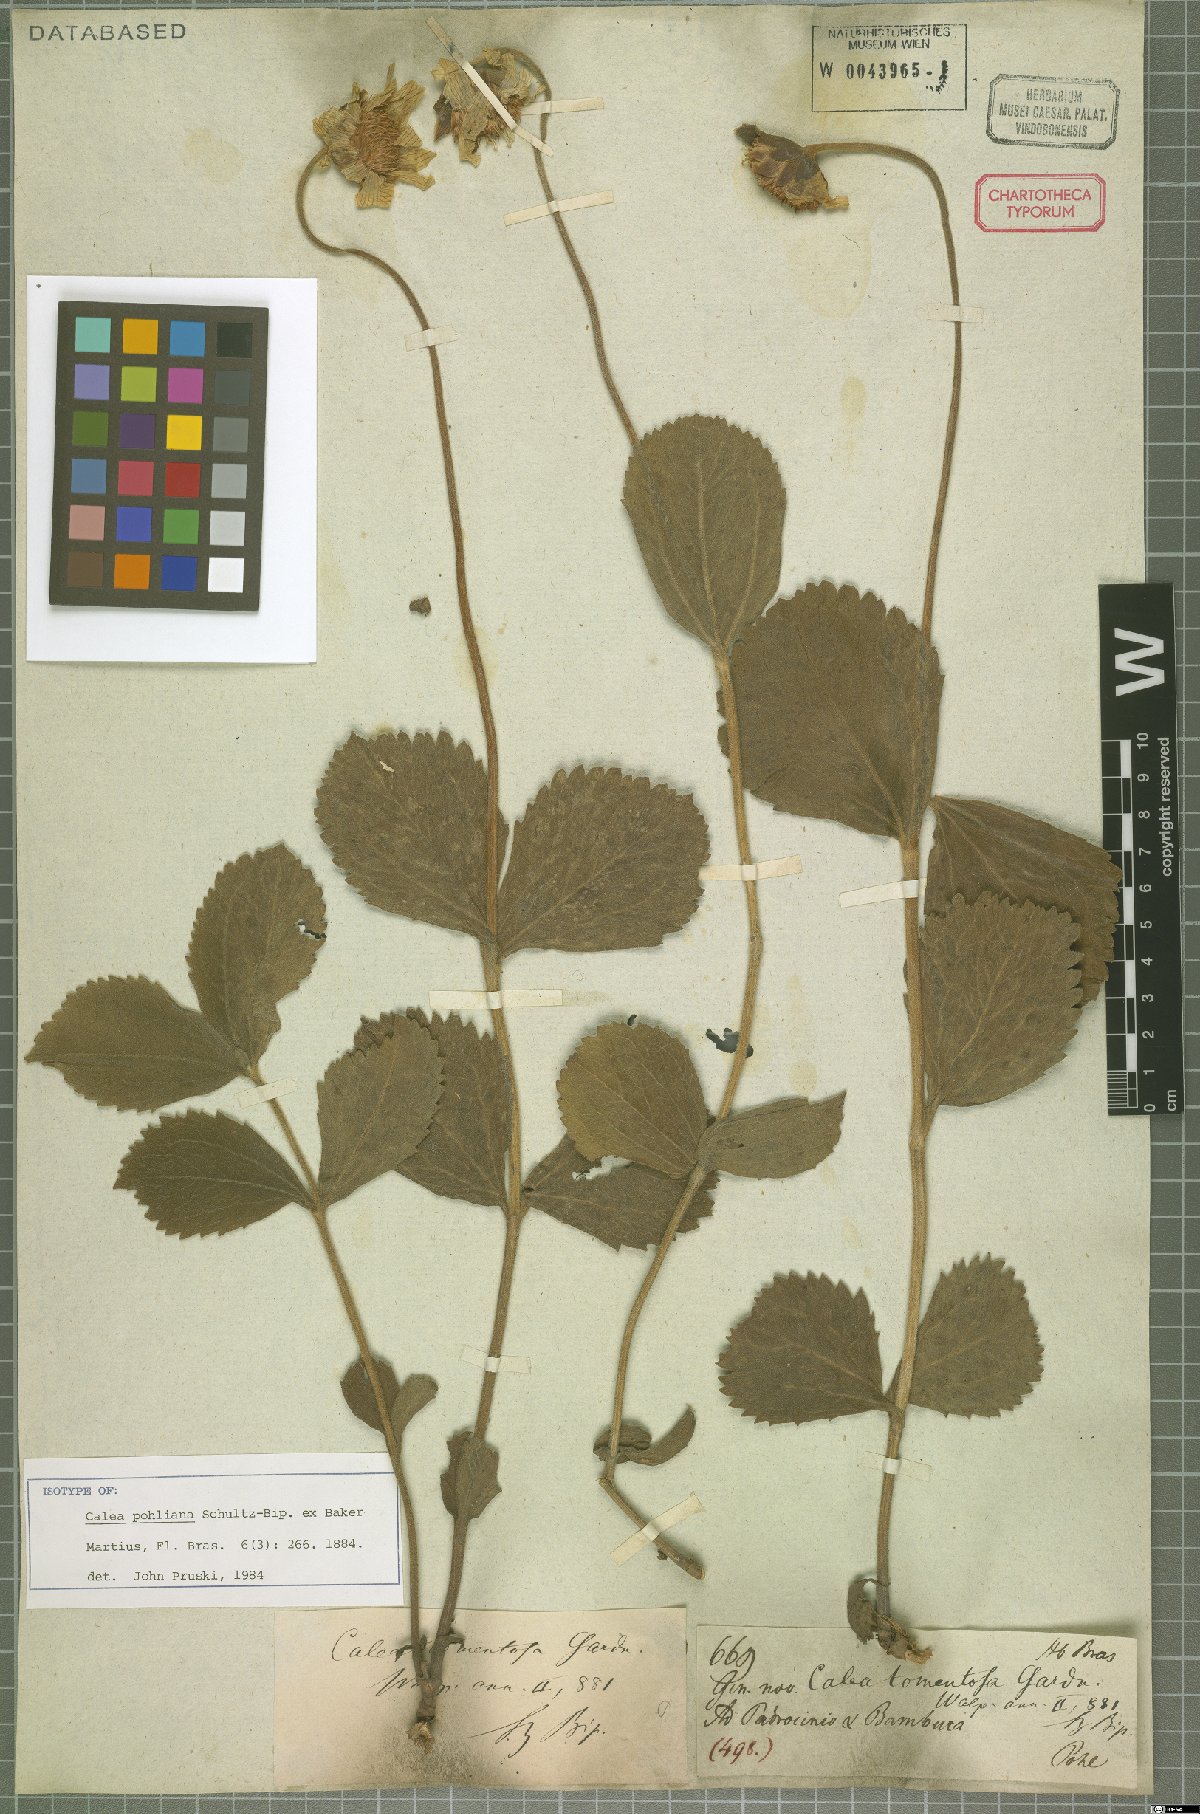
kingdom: Plantae
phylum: Tracheophyta
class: Magnoliopsida
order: Asterales
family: Asteraceae
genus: Calea
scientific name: Calea pohliana
